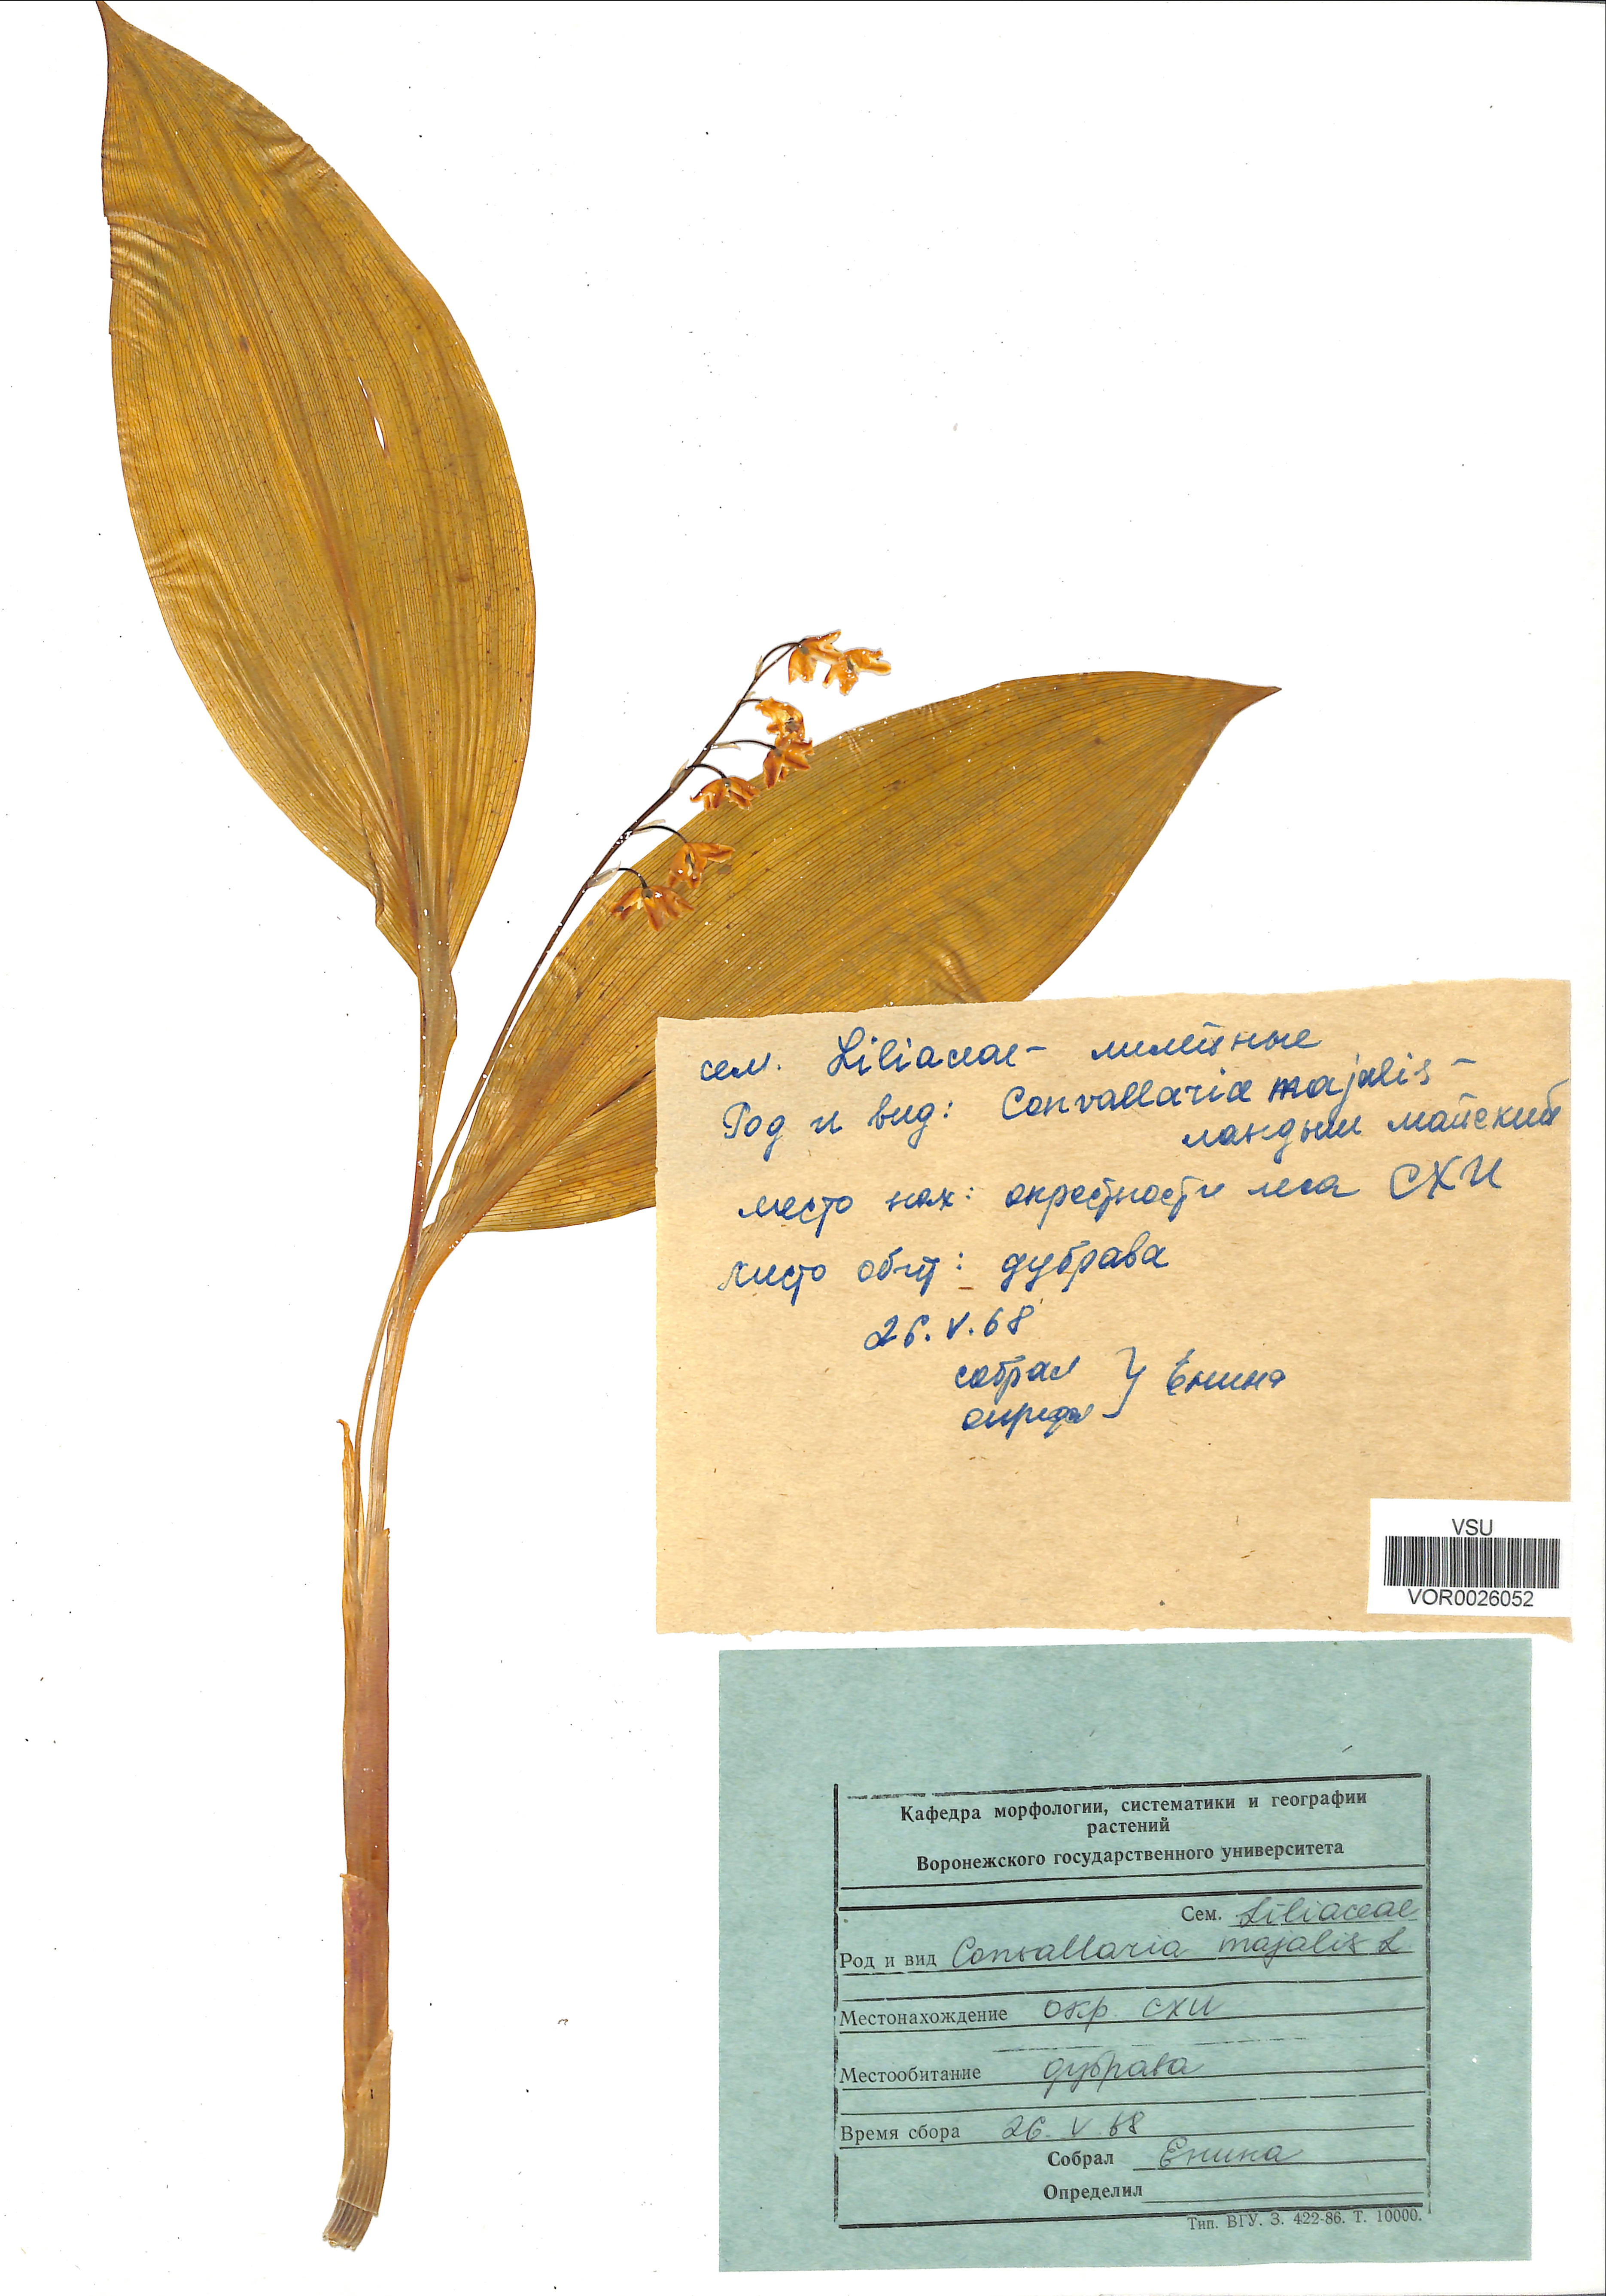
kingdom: Plantae
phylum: Tracheophyta
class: Liliopsida
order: Asparagales
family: Asparagaceae
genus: Convallaria
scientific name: Convallaria majalis
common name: Lily-of-the-valley
